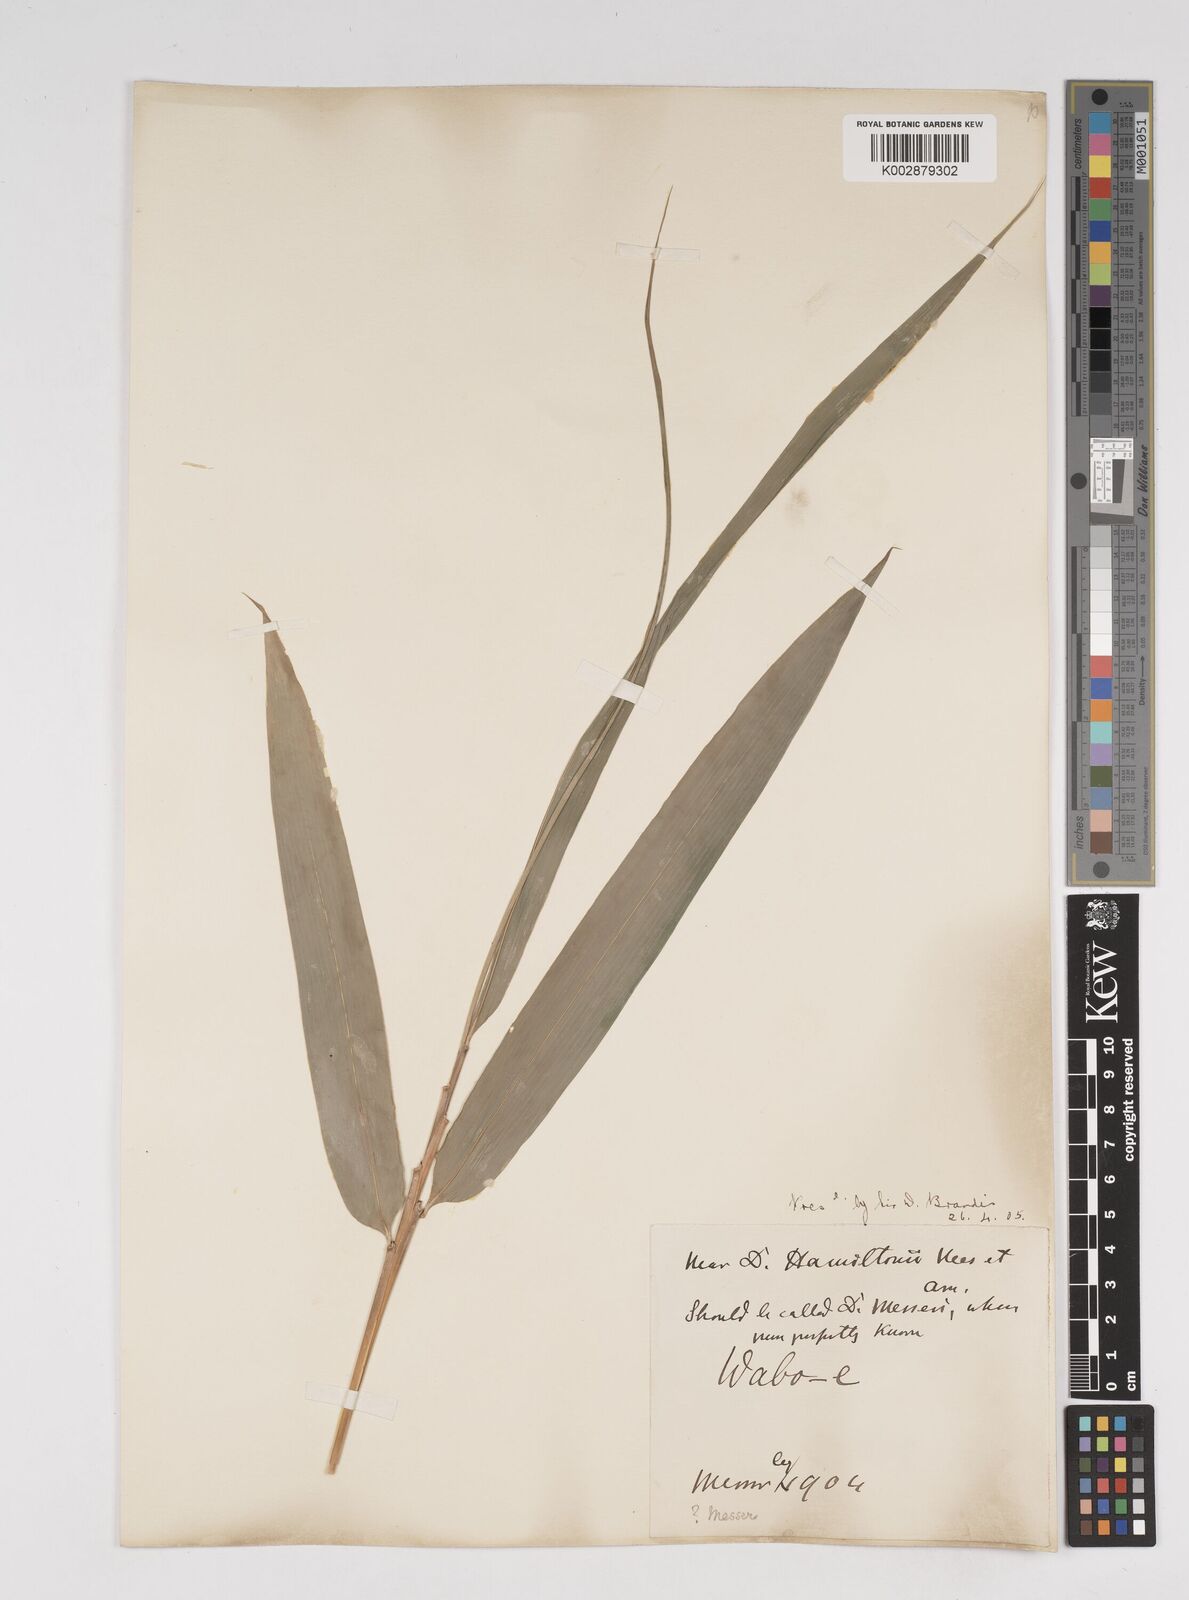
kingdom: Plantae
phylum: Tracheophyta
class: Liliopsida
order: Poales
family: Poaceae
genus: Dendrocalamus
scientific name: Dendrocalamus
